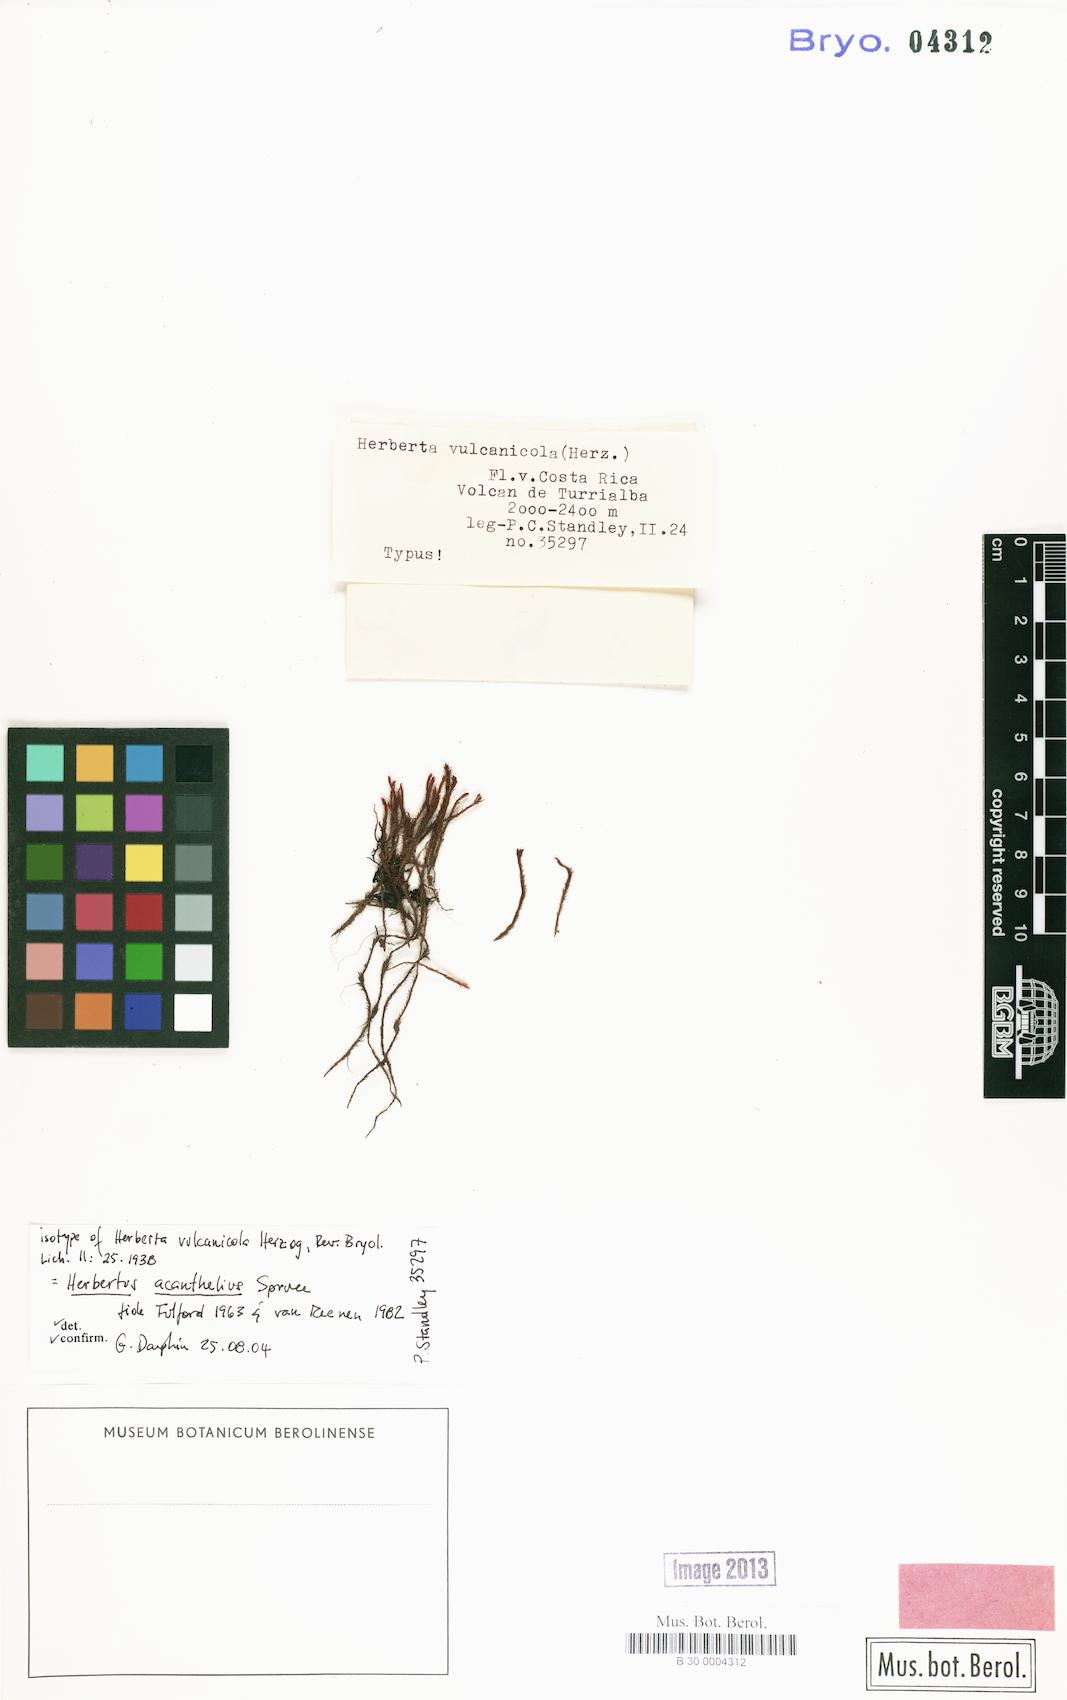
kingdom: Plantae
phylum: Marchantiophyta
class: Jungermanniopsida
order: Jungermanniales
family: Herbertaceae
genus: Herbertus
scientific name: Herbertus juniperoideus
